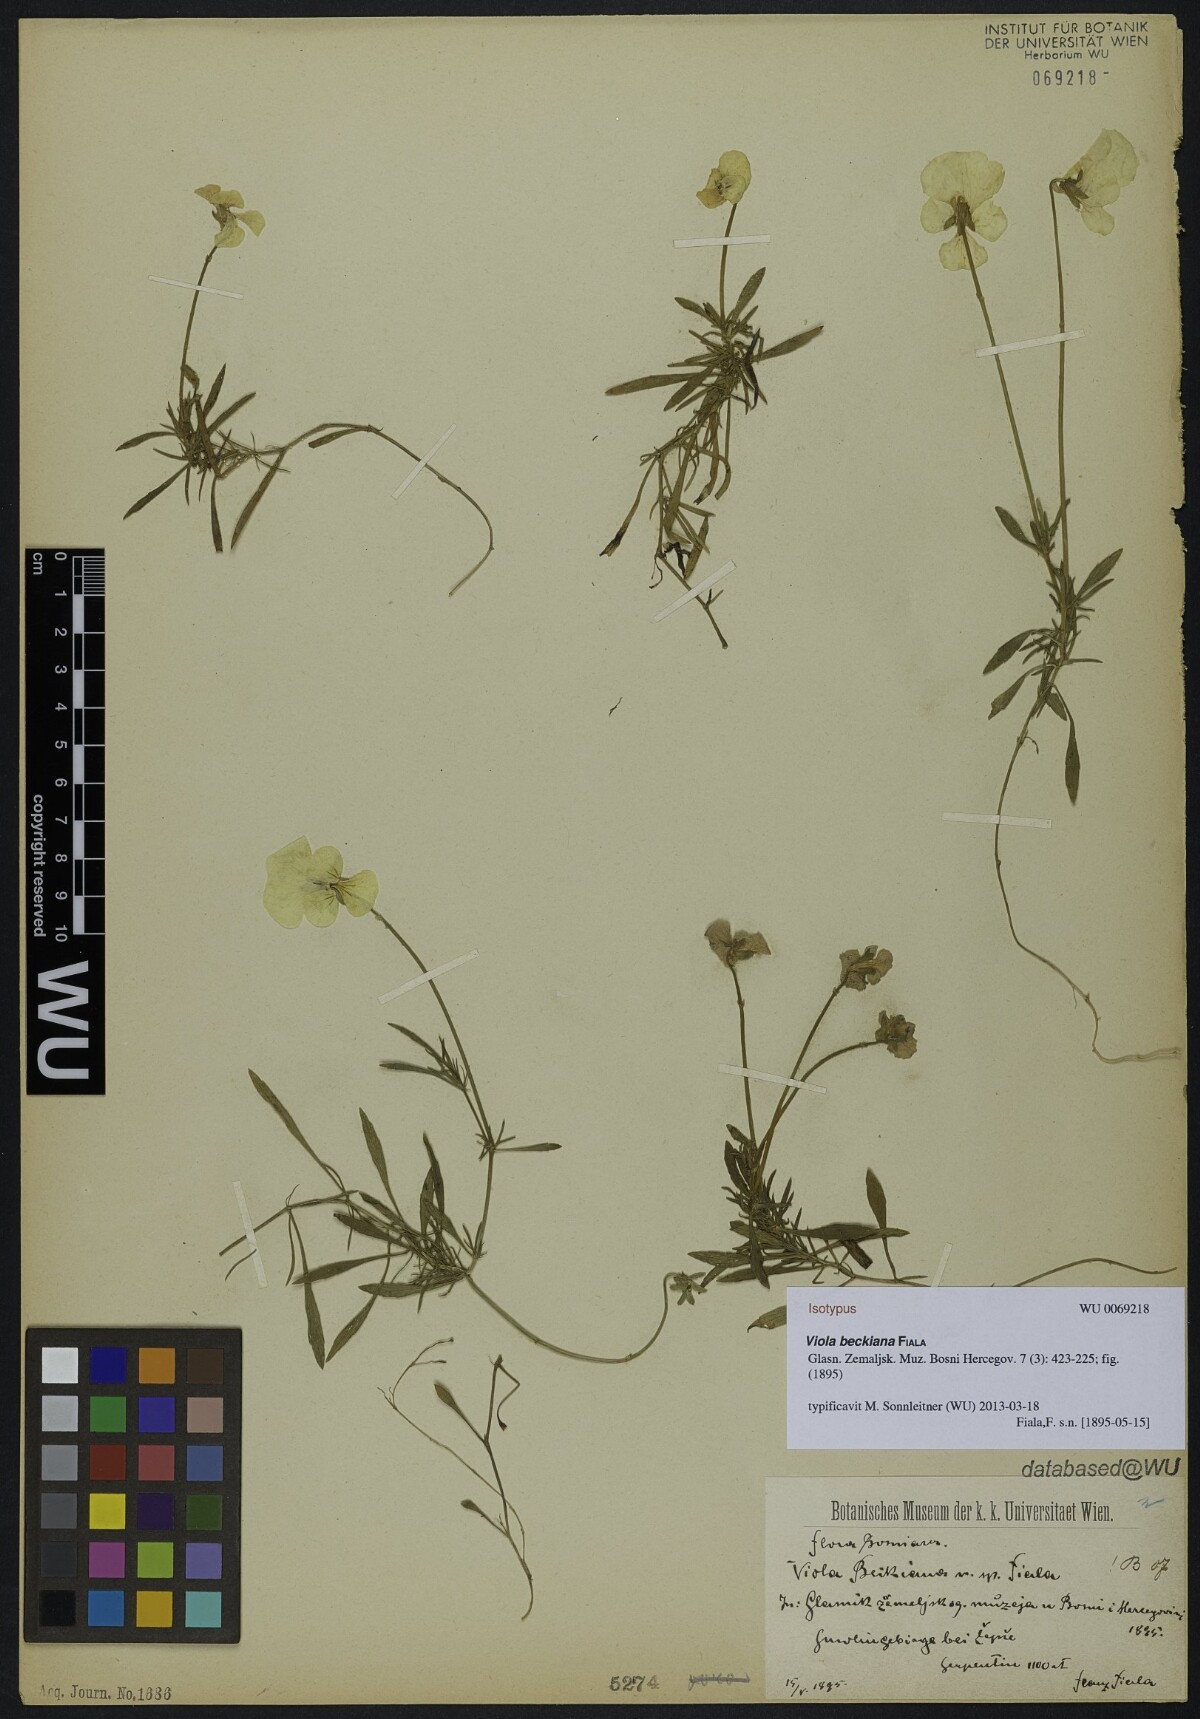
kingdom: Plantae
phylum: Tracheophyta
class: Magnoliopsida
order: Malpighiales
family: Violaceae
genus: Viola
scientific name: Viola beckiana
